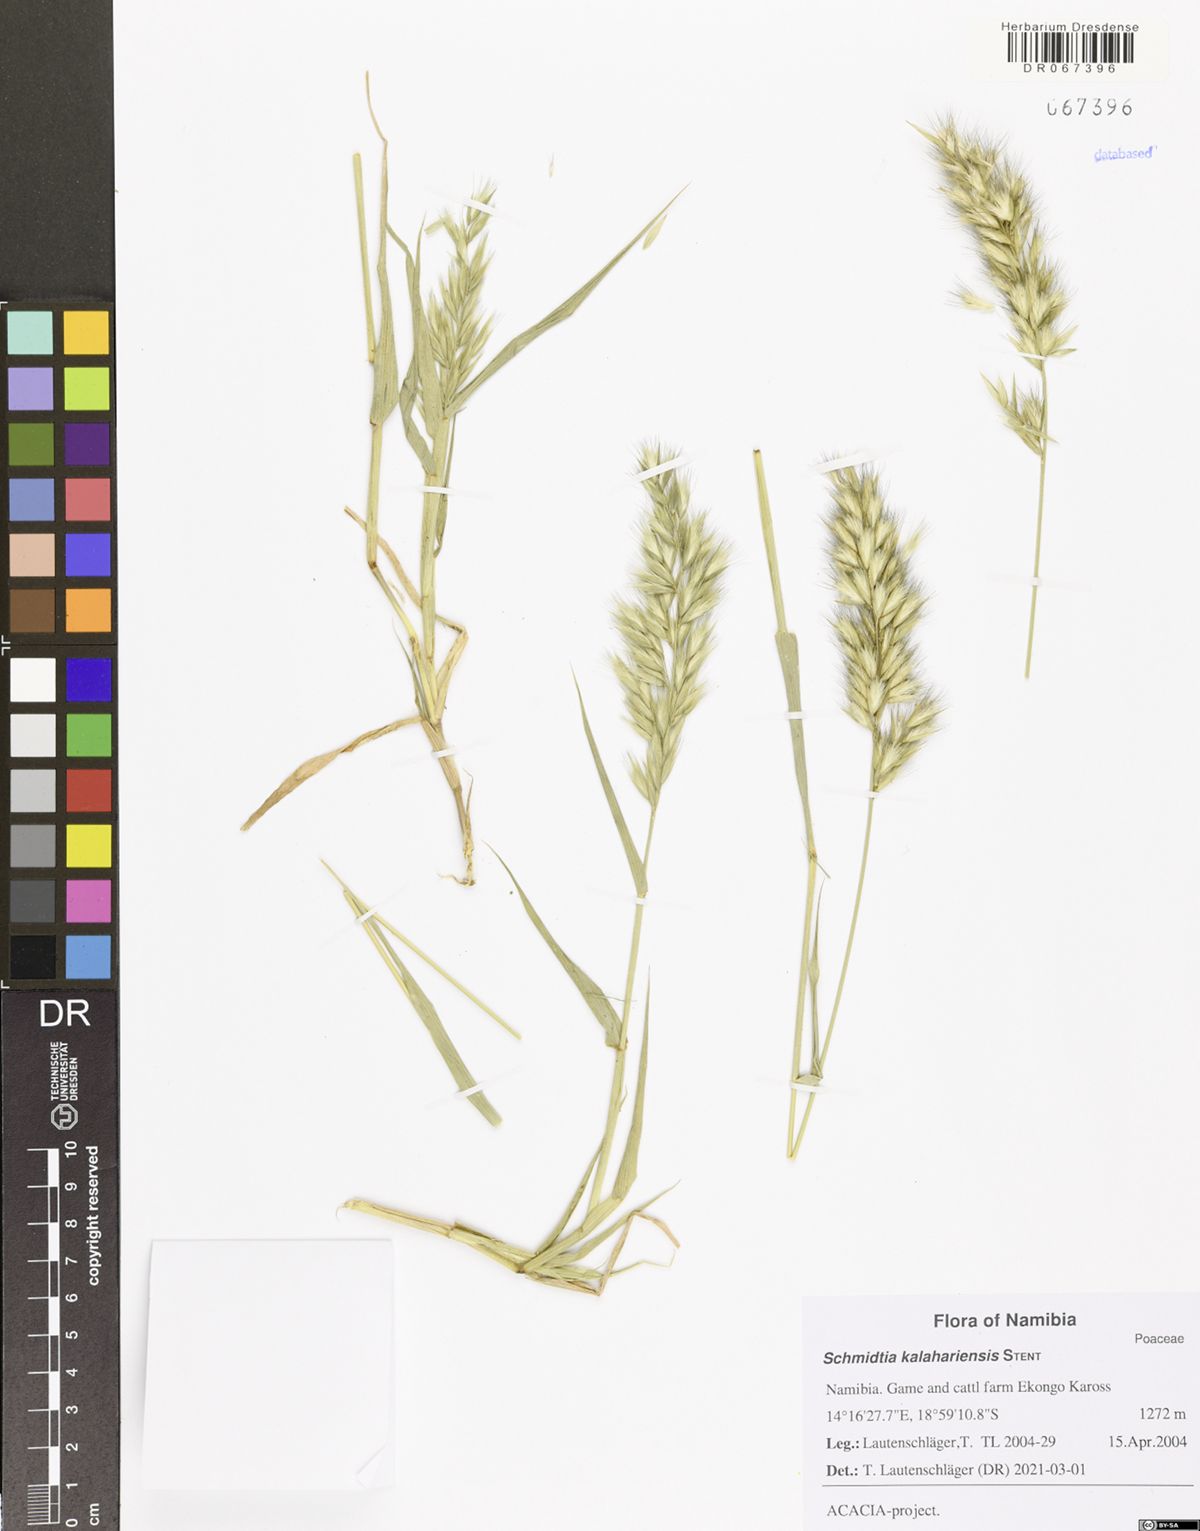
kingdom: Plantae
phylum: Tracheophyta
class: Liliopsida
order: Poales
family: Poaceae
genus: Schmidtia
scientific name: Schmidtia kalahariensis
